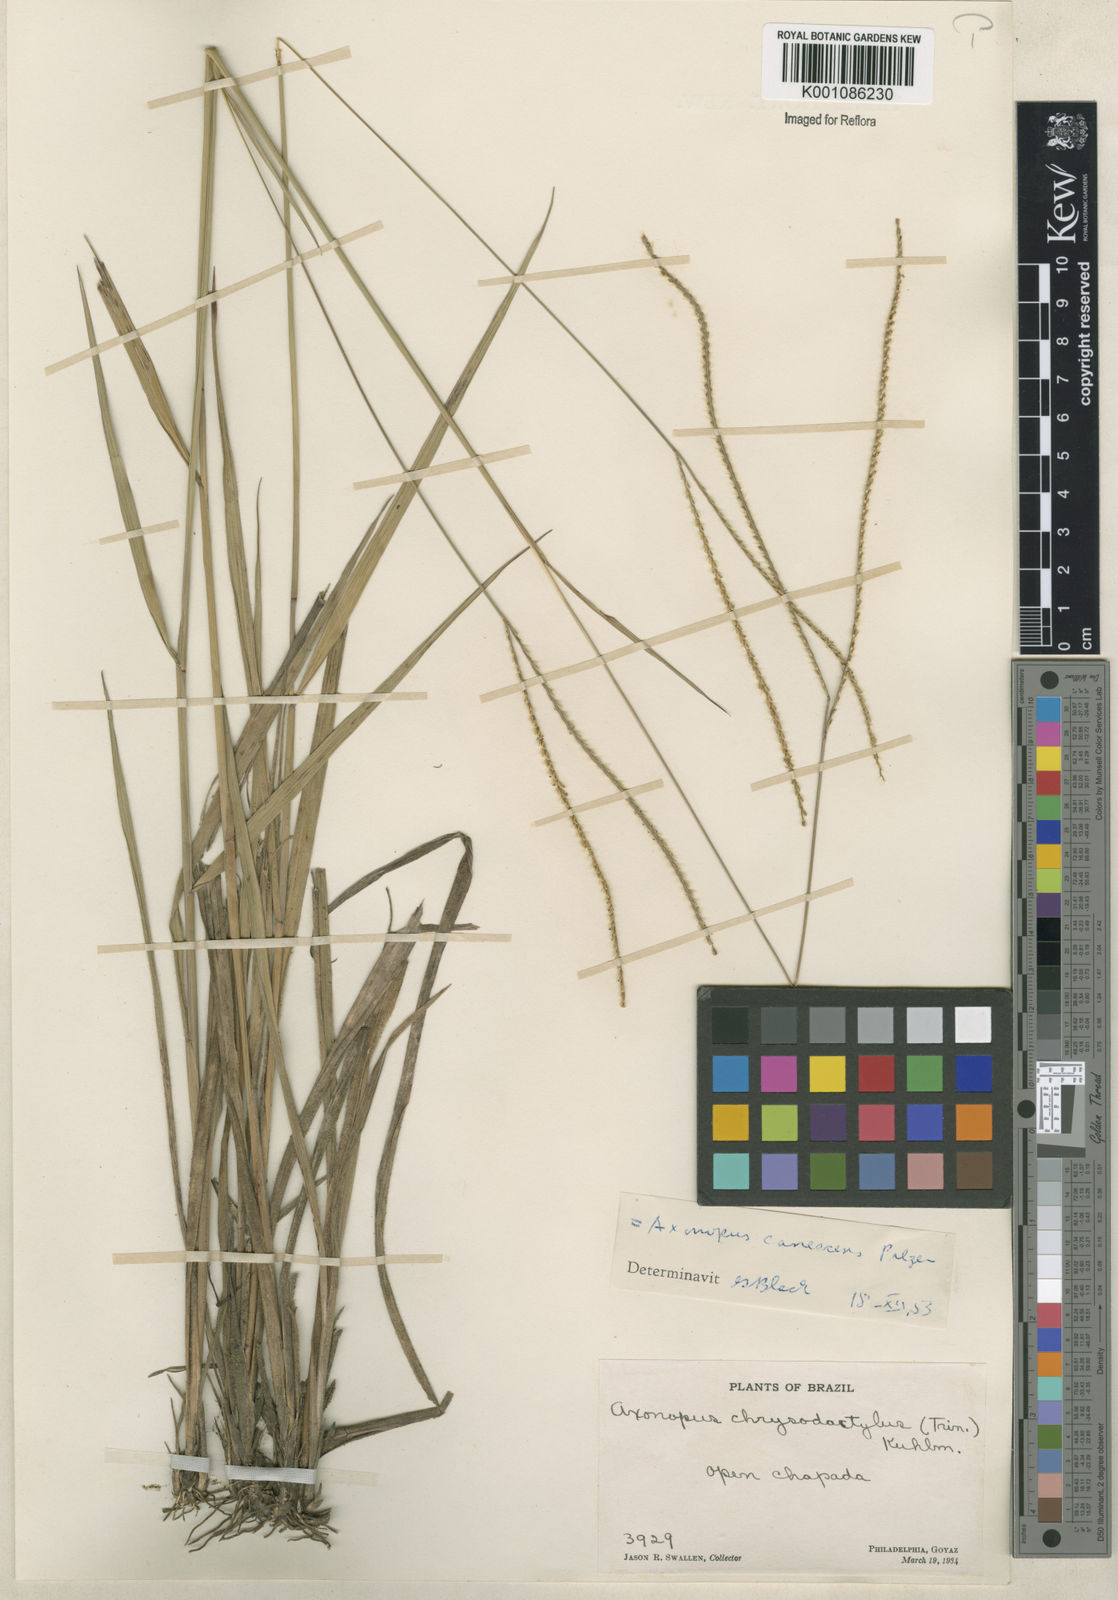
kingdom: Plantae
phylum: Tracheophyta
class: Liliopsida
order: Poales
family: Poaceae
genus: Axonopus
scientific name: Axonopus aureus
